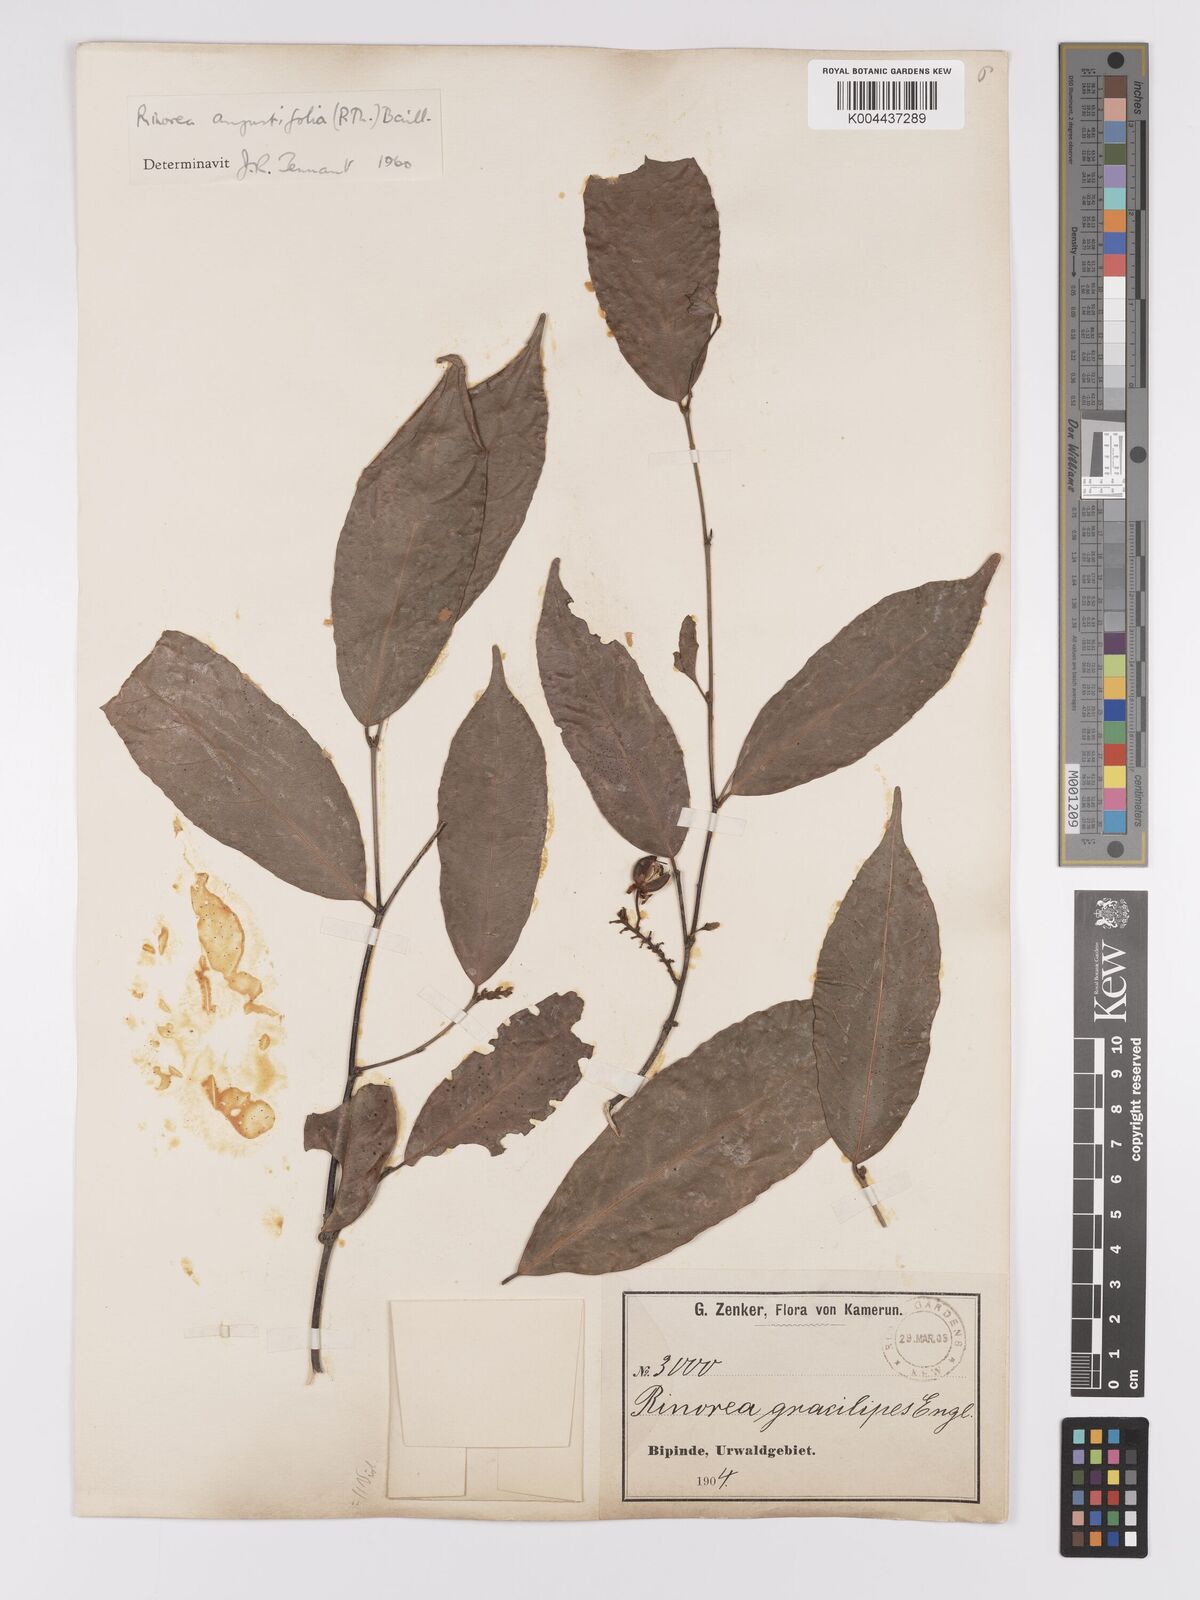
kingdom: Plantae
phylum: Tracheophyta
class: Magnoliopsida
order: Malpighiales
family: Violaceae
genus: Rinorea
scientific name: Rinorea angustifolia
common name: White violet-bush
